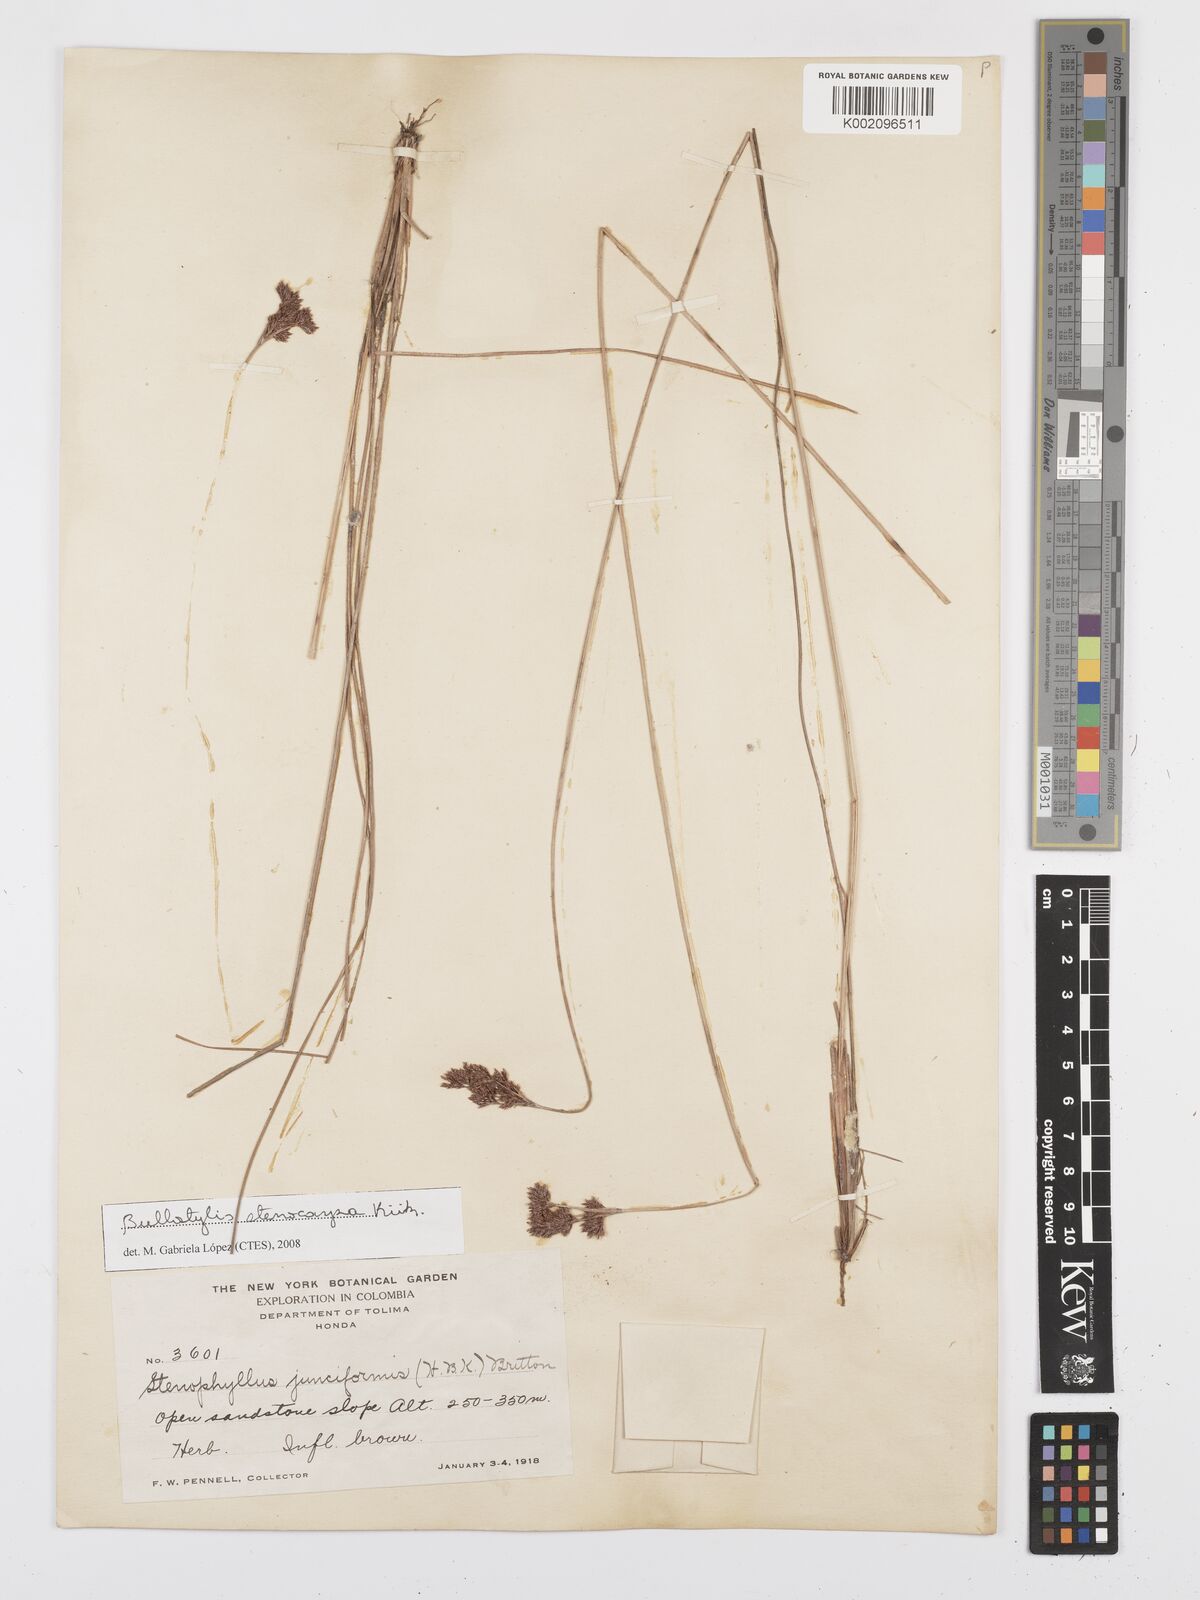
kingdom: Plantae
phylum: Tracheophyta
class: Liliopsida
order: Poales
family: Cyperaceae
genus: Bulbostylis
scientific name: Bulbostylis stenocarpa
